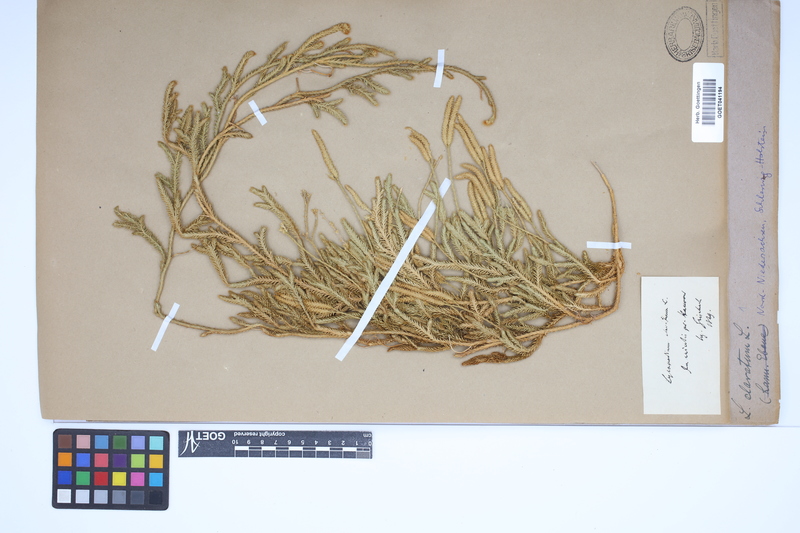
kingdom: Plantae
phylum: Tracheophyta
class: Lycopodiopsida
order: Lycopodiales
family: Lycopodiaceae
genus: Lycopodium
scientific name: Lycopodium clavatum
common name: Stag's-horn clubmoss
